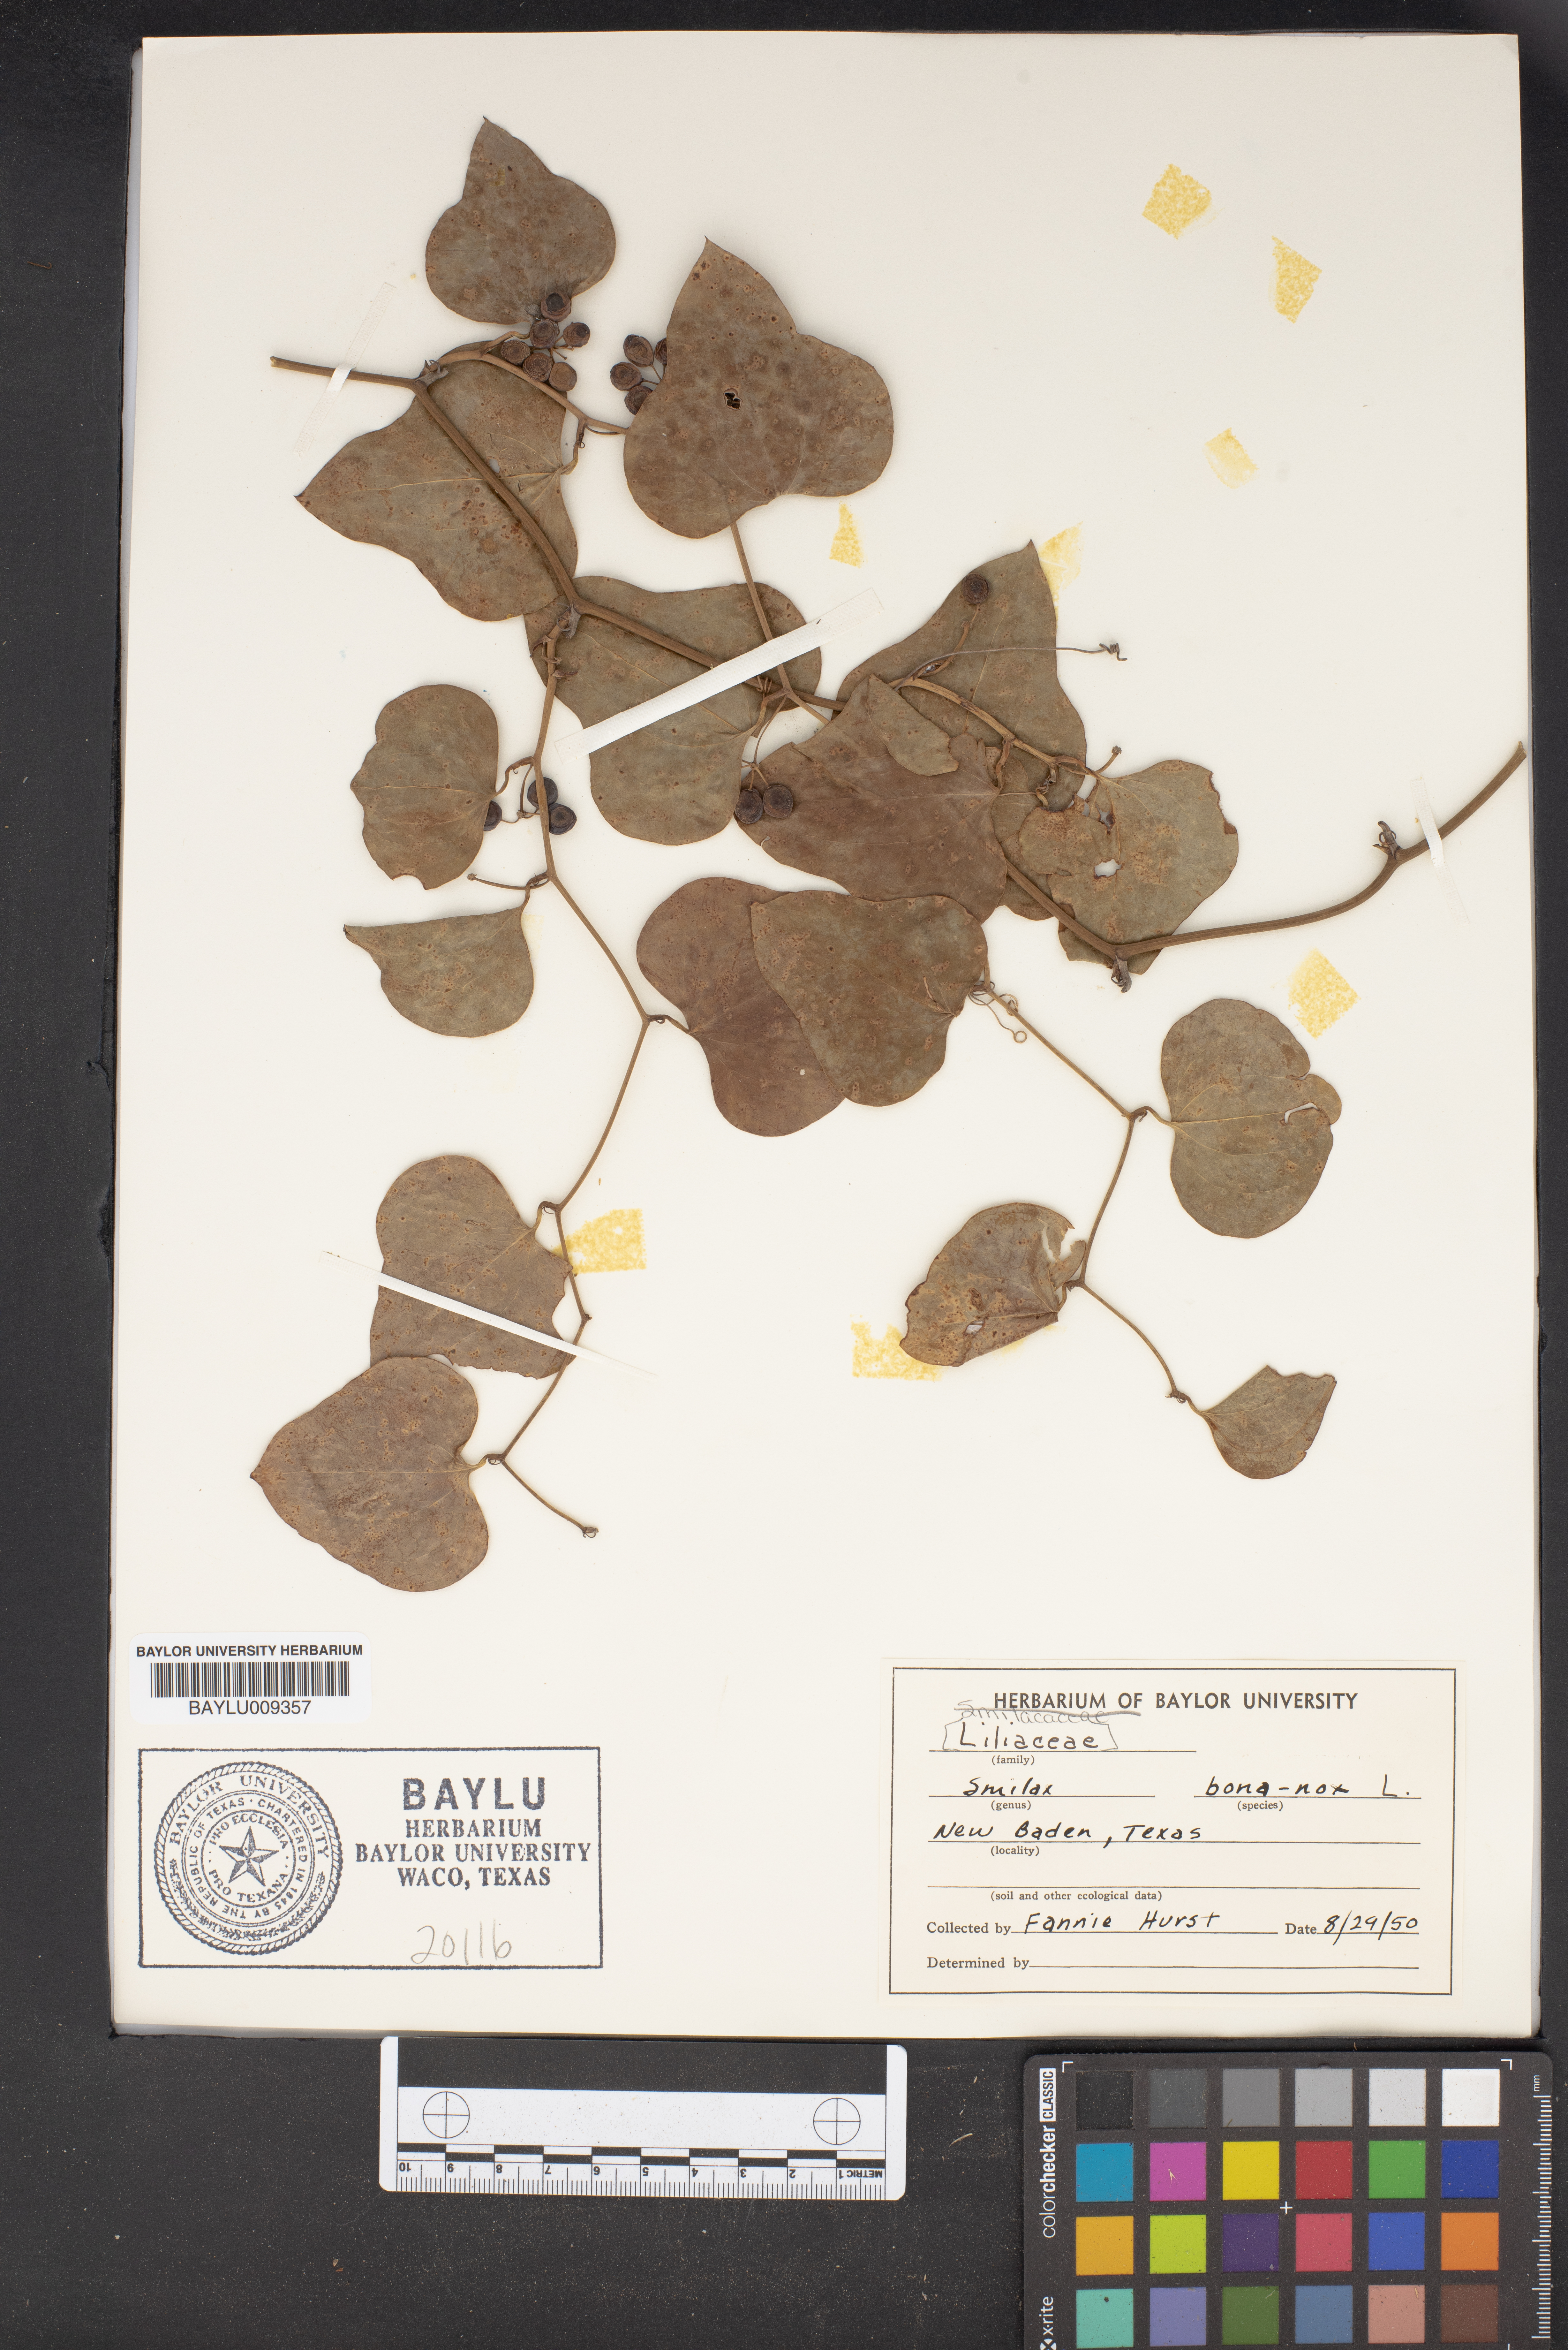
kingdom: Plantae
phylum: Tracheophyta
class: Liliopsida
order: Liliales
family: Smilacaceae
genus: Smilax
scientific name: Smilax bona-nox
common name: Catbrier
